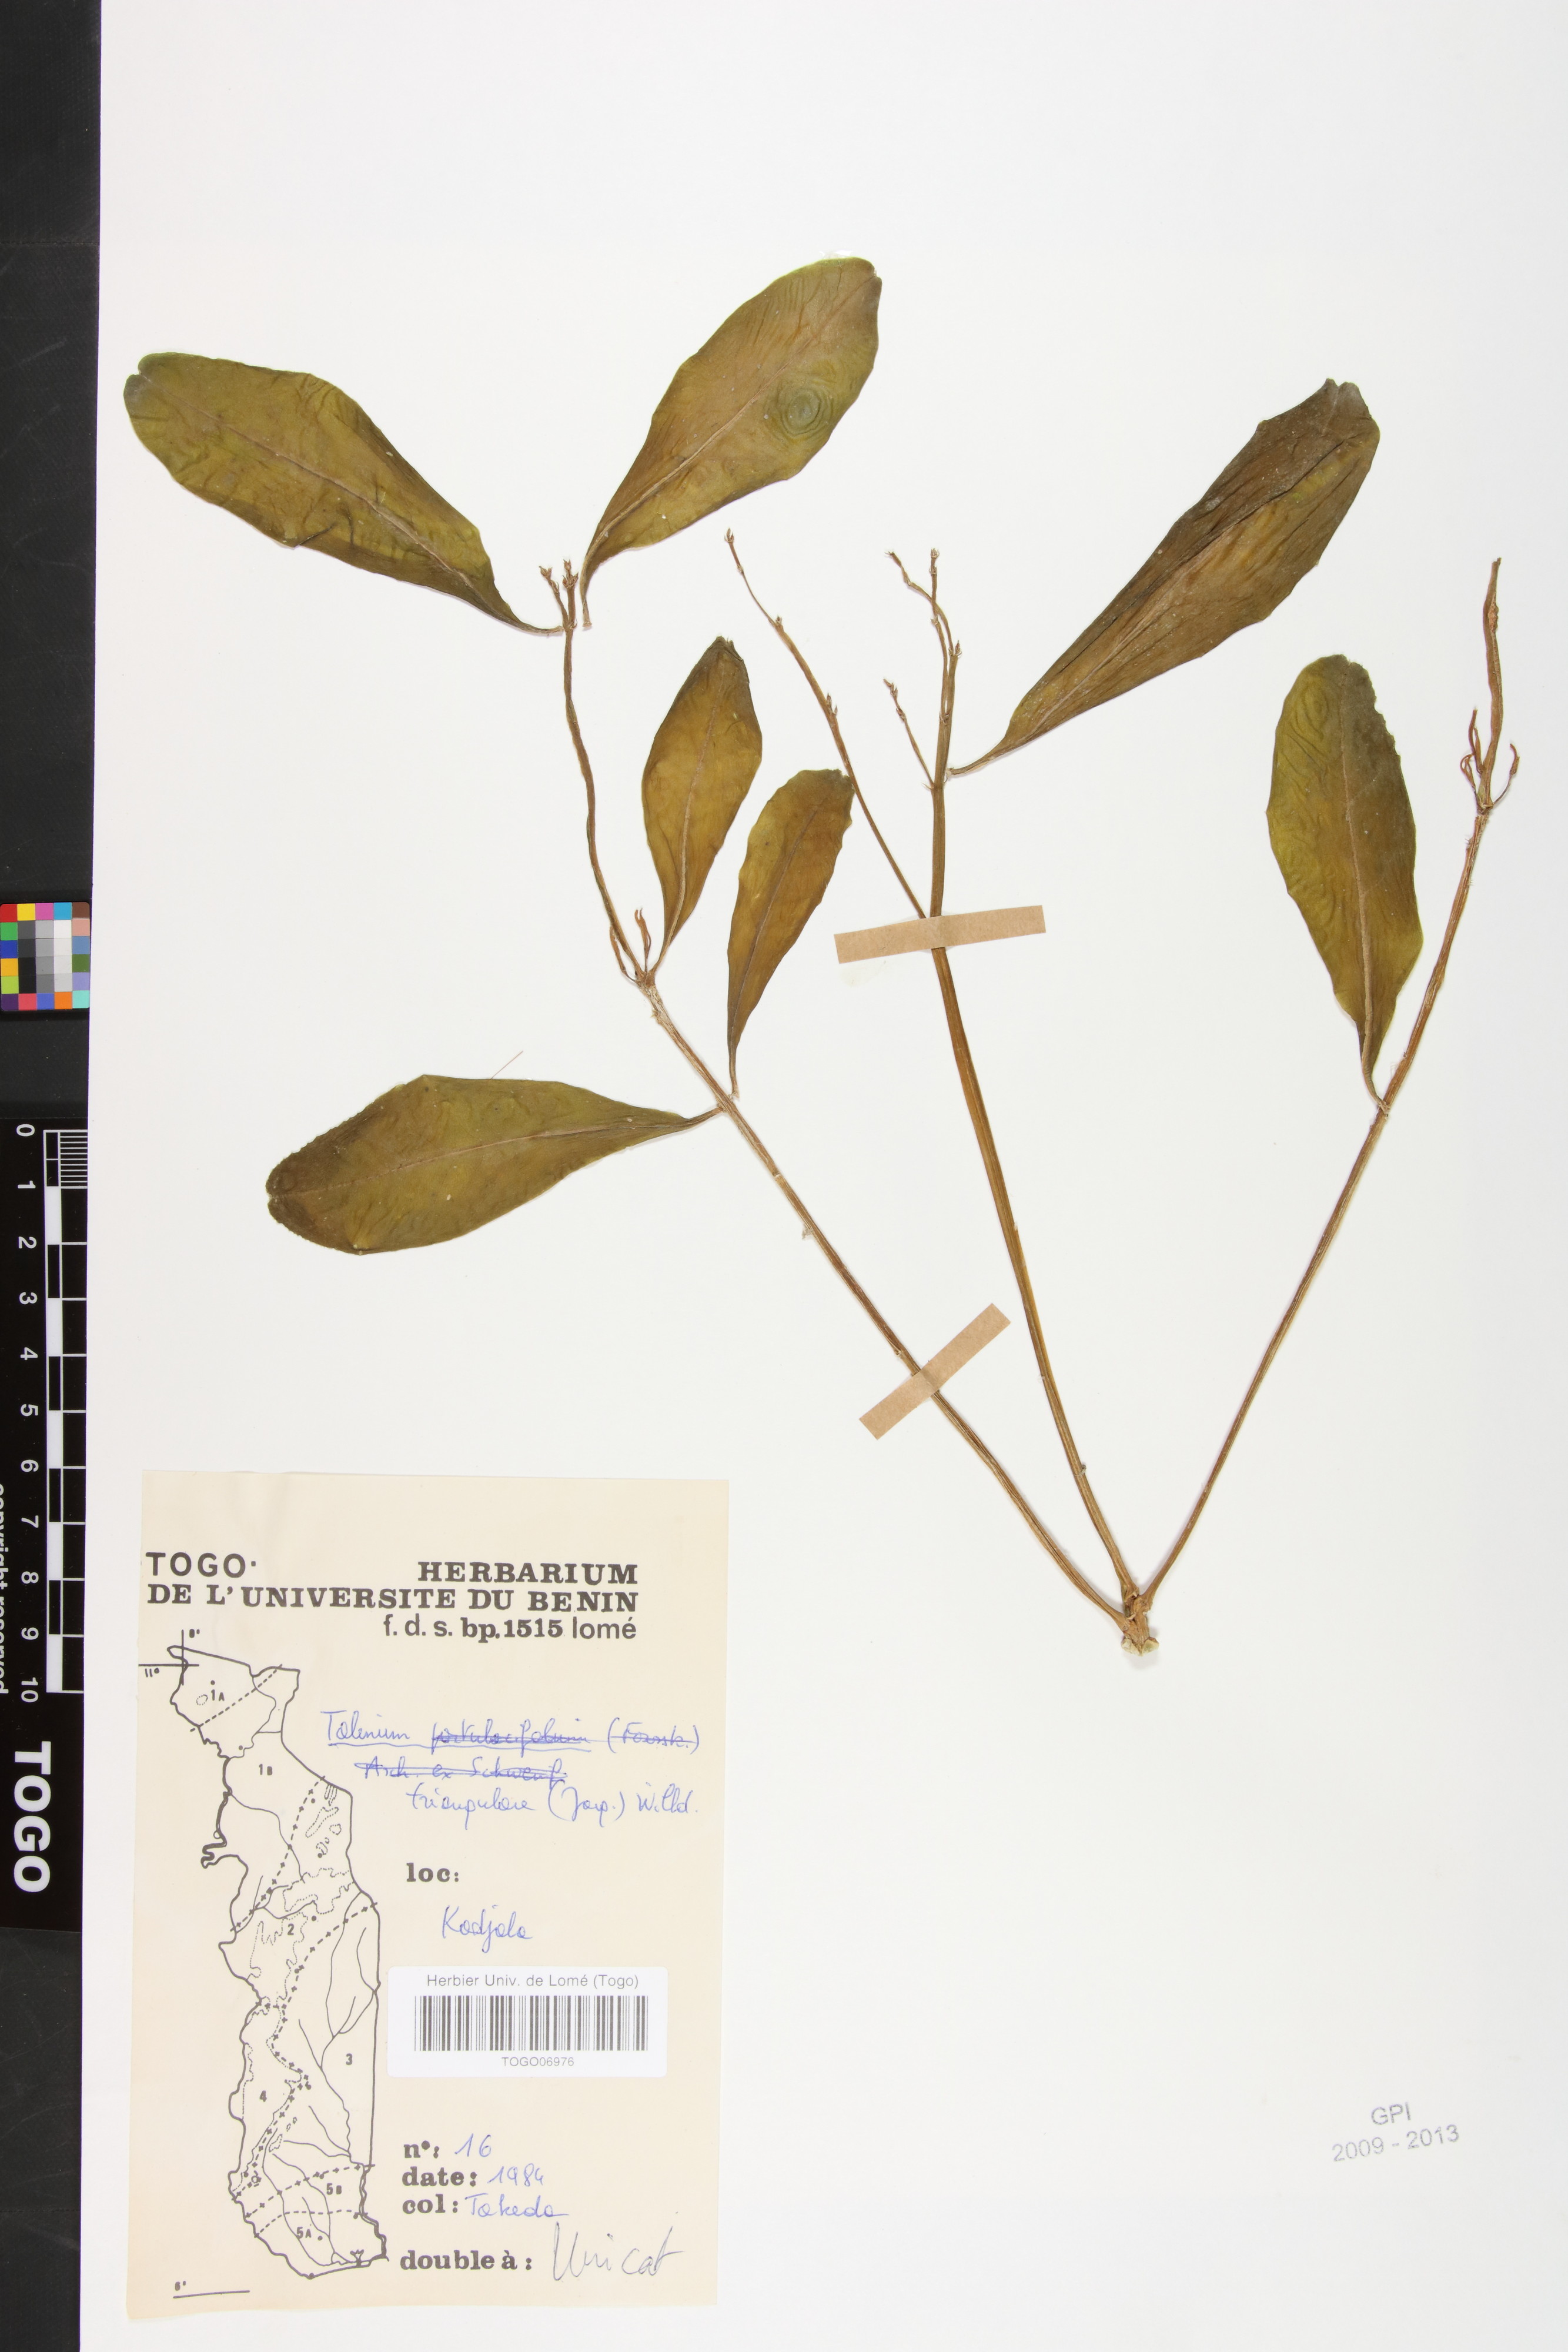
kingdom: Plantae
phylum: Tracheophyta
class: Magnoliopsida
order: Caryophyllales
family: Talinaceae
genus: Talinum
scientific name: Talinum fruticosum
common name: Verdolaga-francesa
